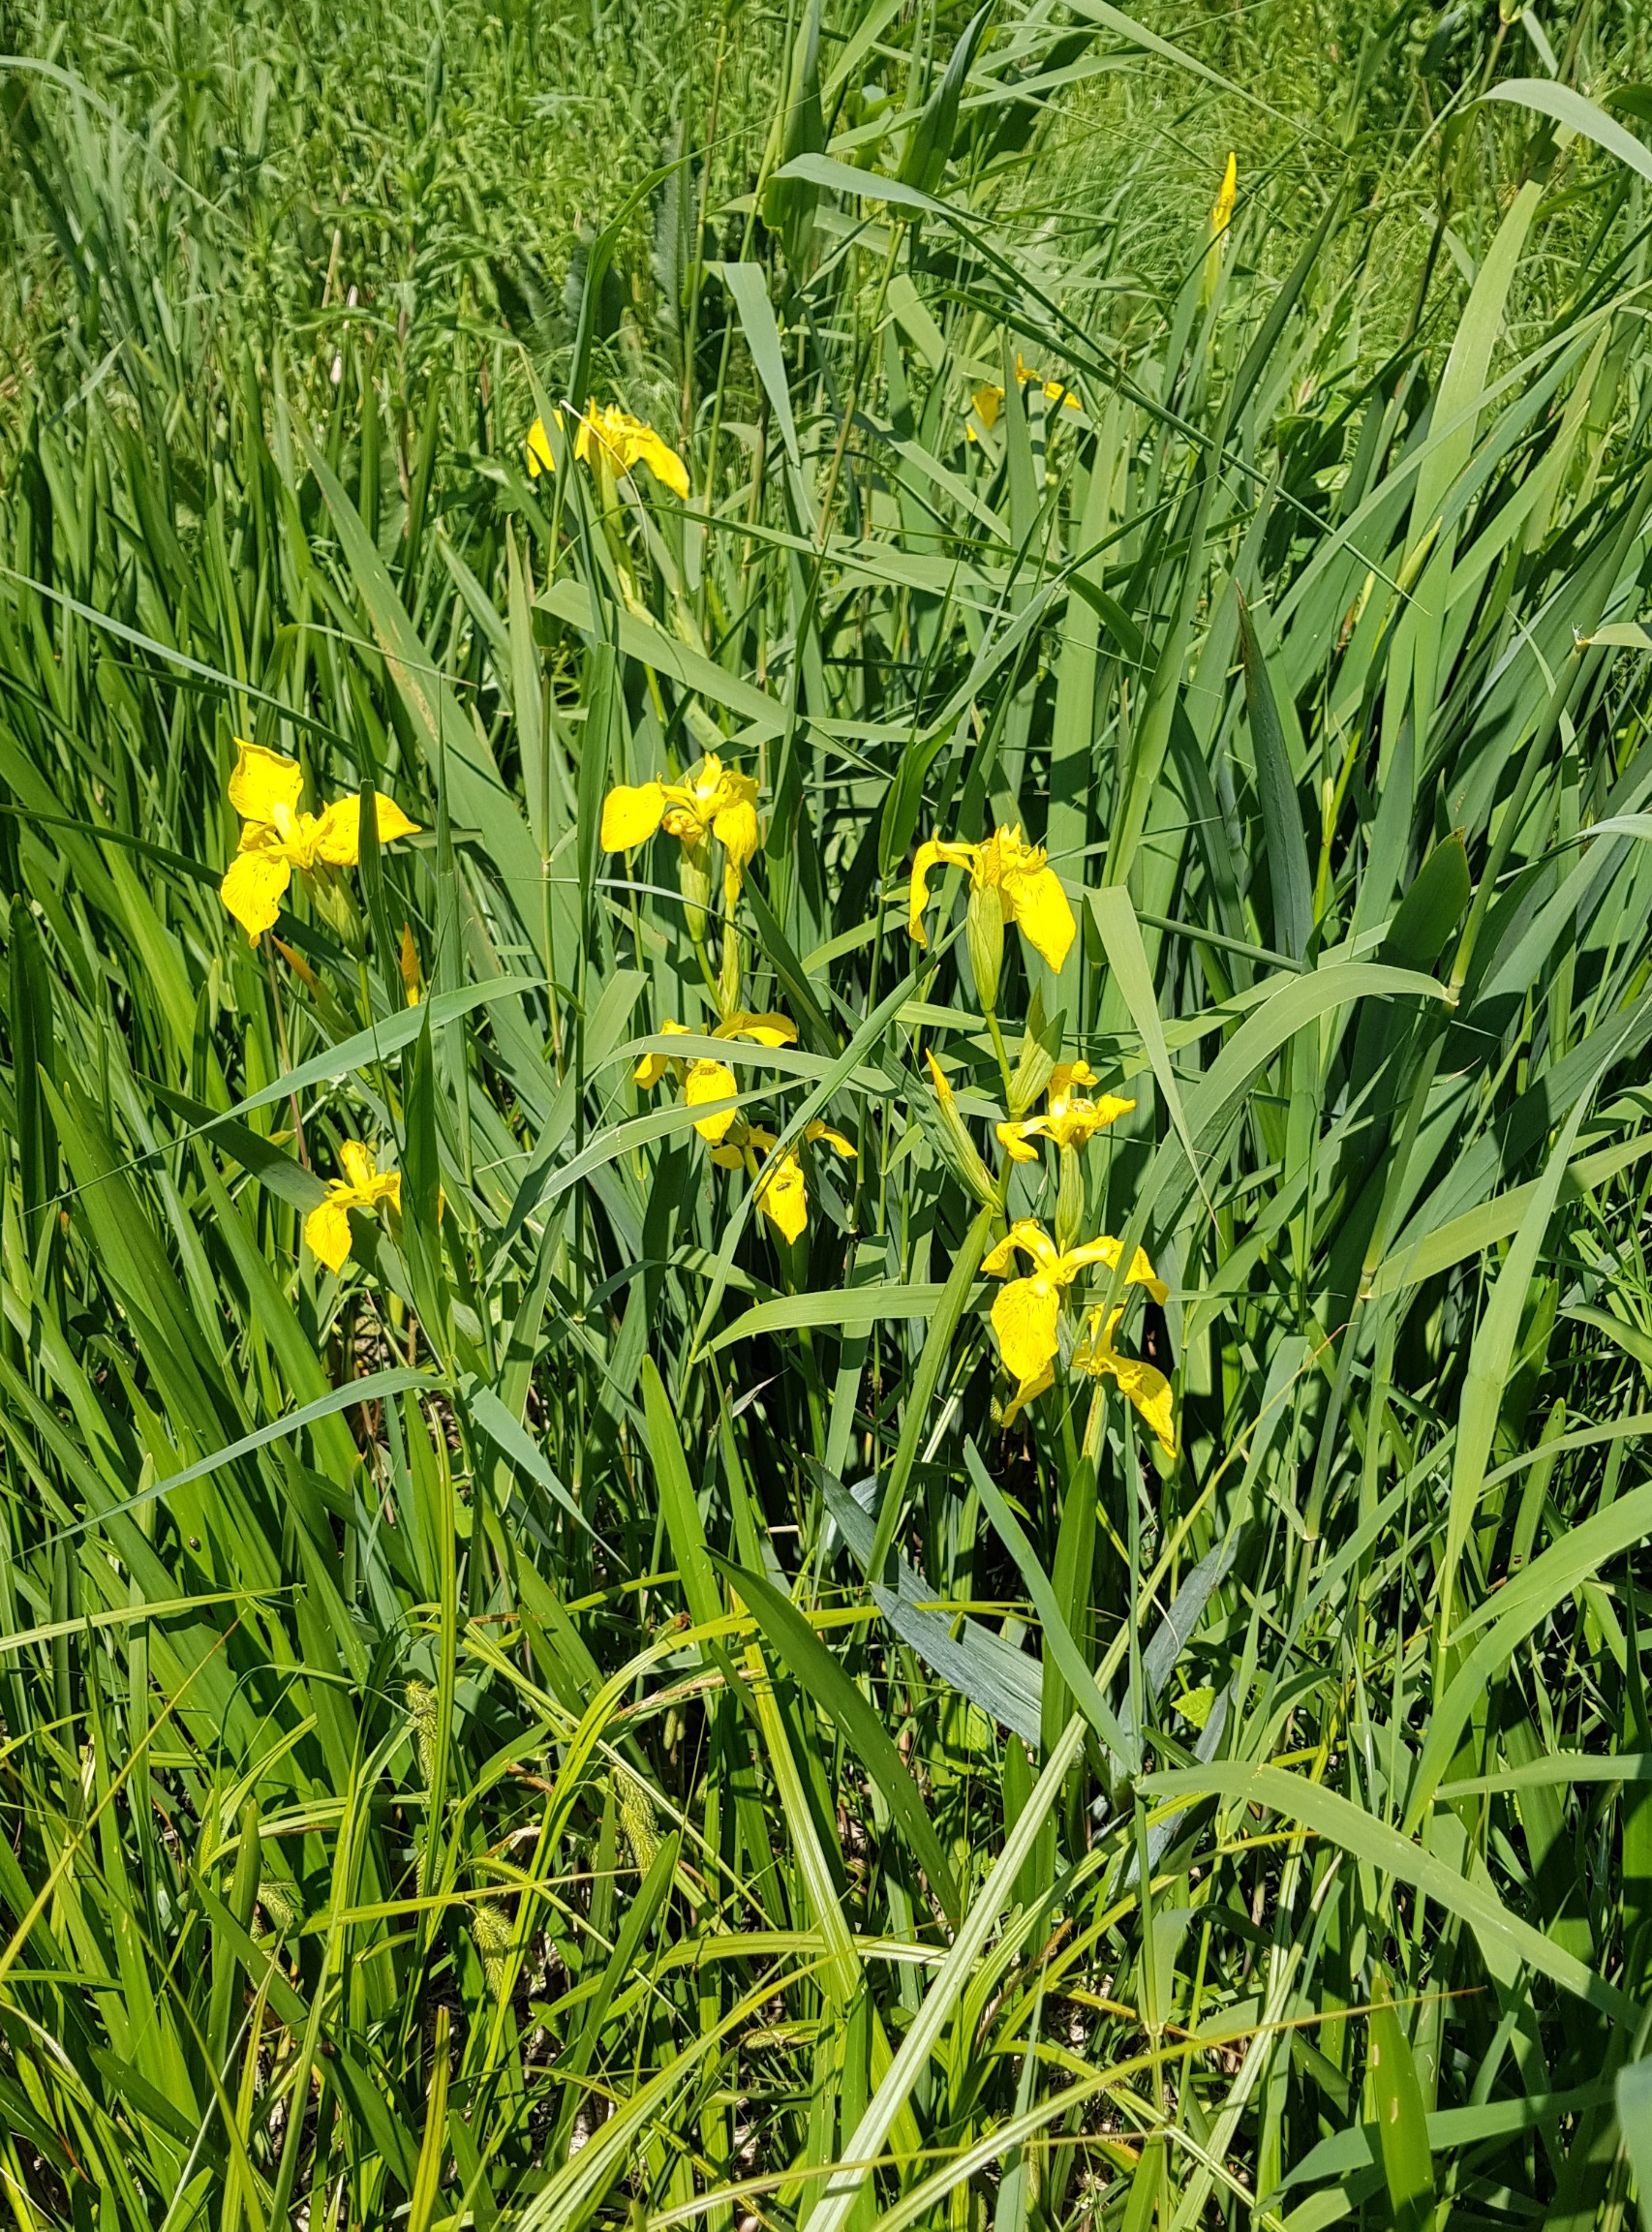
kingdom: Plantae
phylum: Tracheophyta
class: Liliopsida
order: Asparagales
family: Iridaceae
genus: Iris
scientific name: Iris pseudacorus
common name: Gul iris
